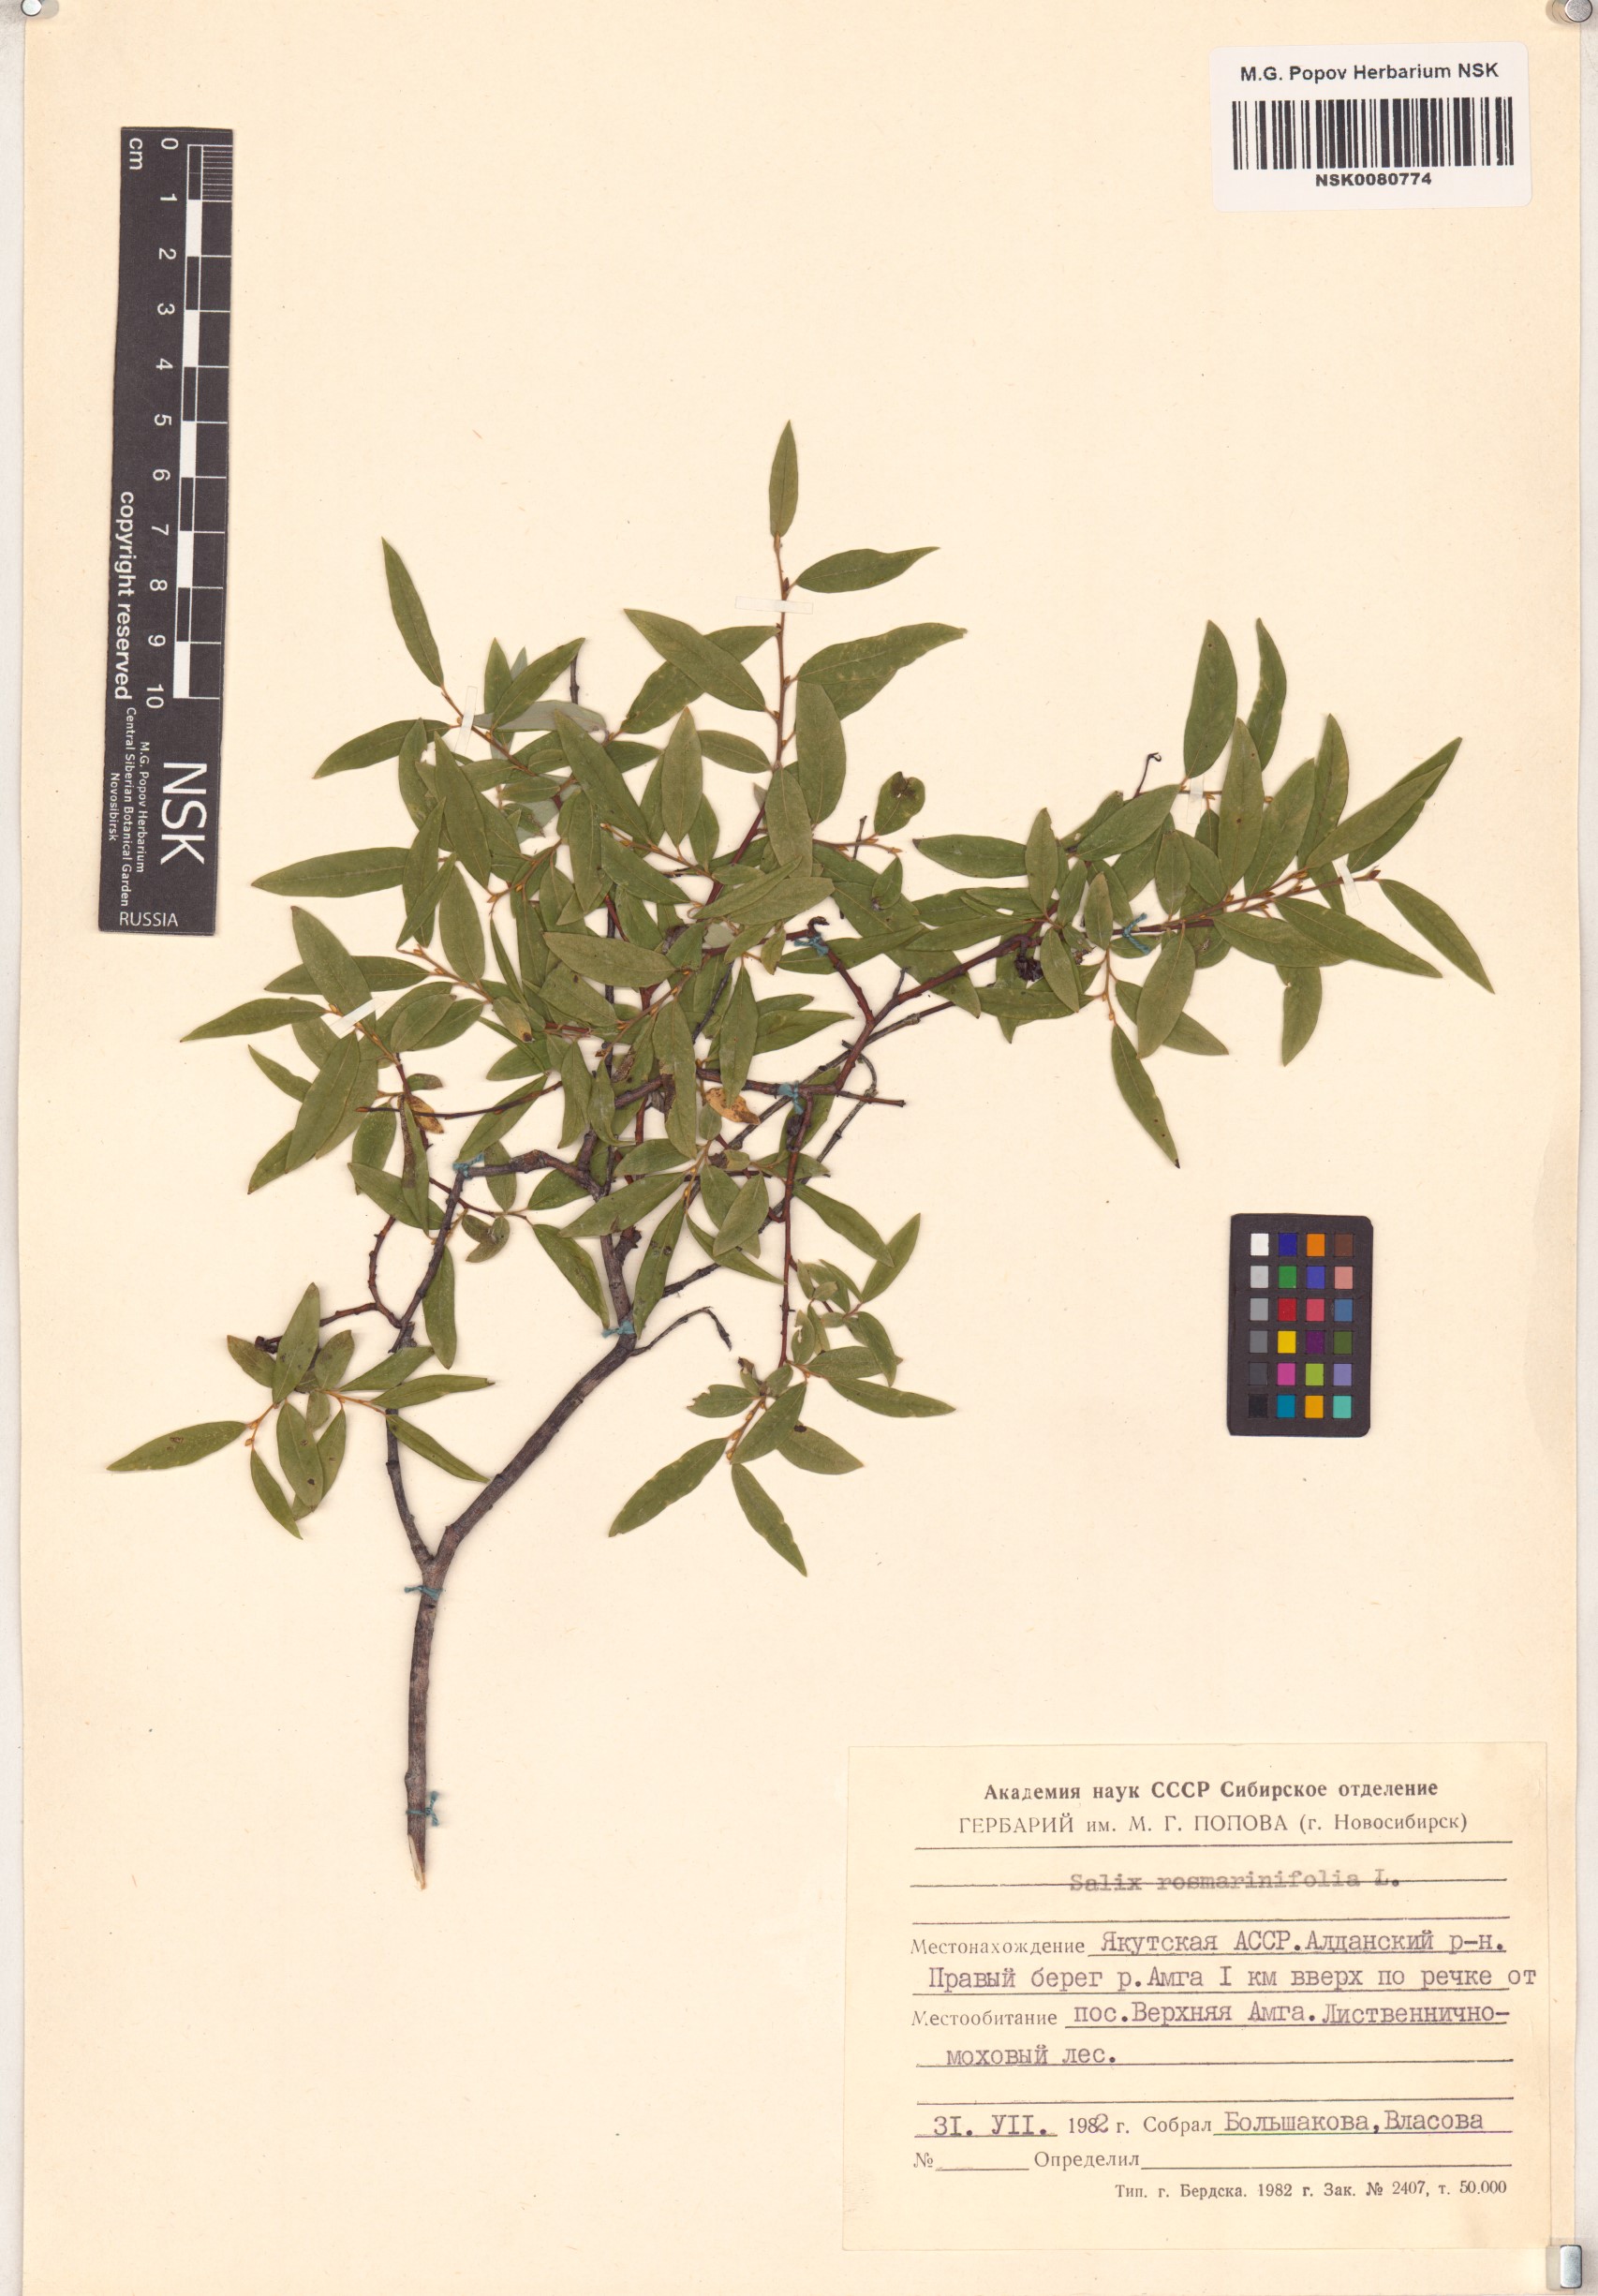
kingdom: Plantae
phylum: Tracheophyta
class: Magnoliopsida
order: Malpighiales
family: Salicaceae
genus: Salix
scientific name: Salix rosmarinifolia
